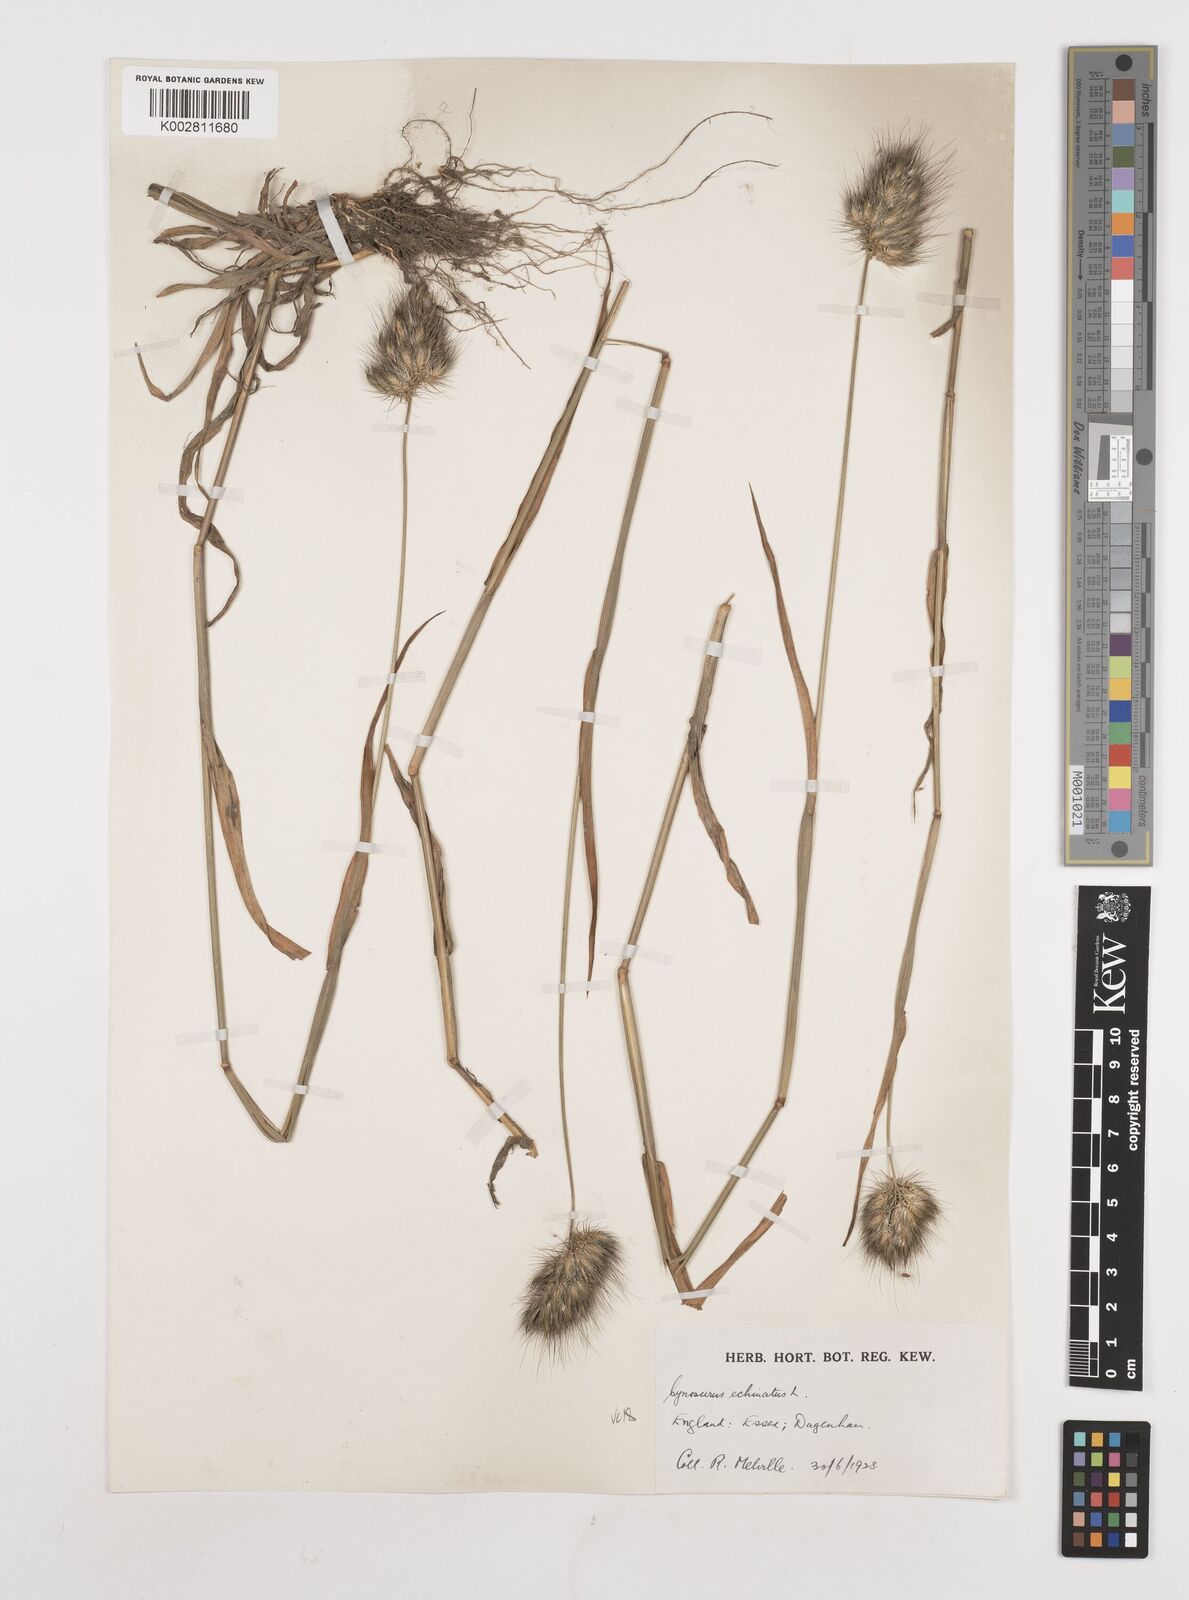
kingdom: Plantae
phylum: Tracheophyta
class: Liliopsida
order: Poales
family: Poaceae
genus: Cynosurus
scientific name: Cynosurus echinatus
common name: Rough dog's-tail
